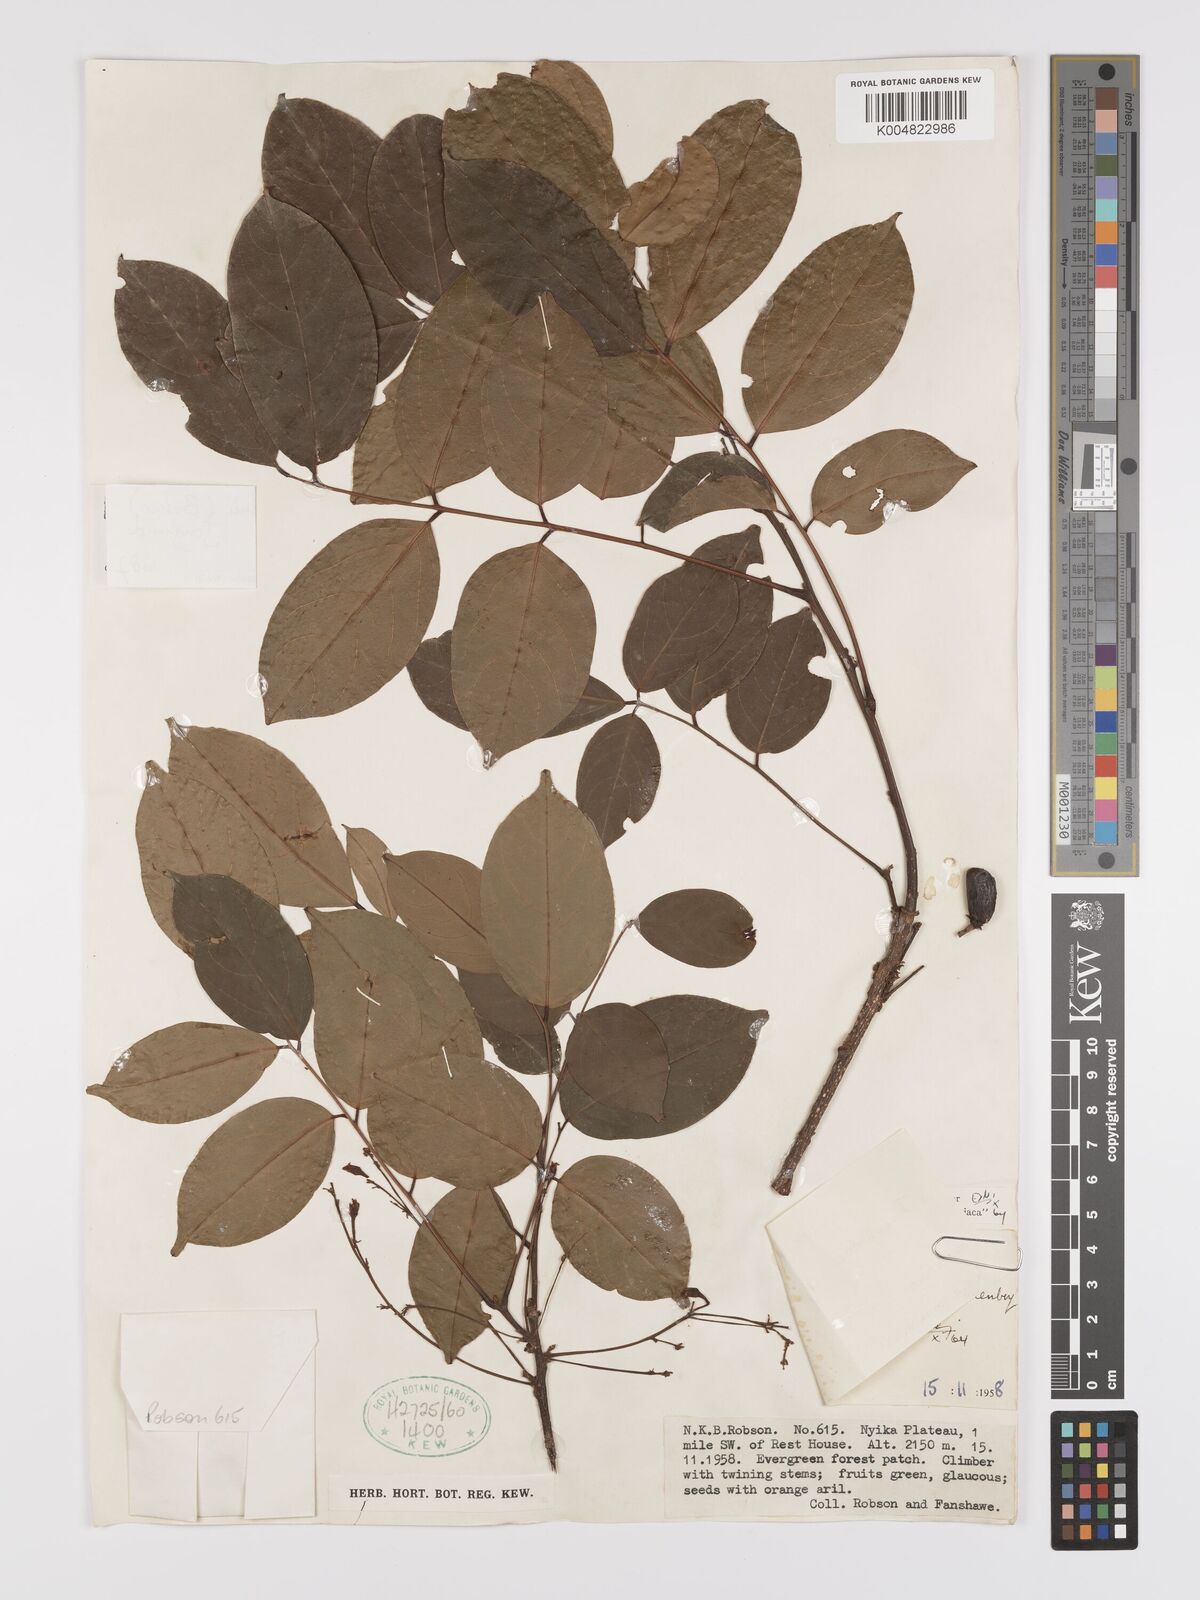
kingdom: Plantae
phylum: Tracheophyta
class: Magnoliopsida
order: Oxalidales
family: Connaraceae
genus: Rourea
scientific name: Rourea pinnata
